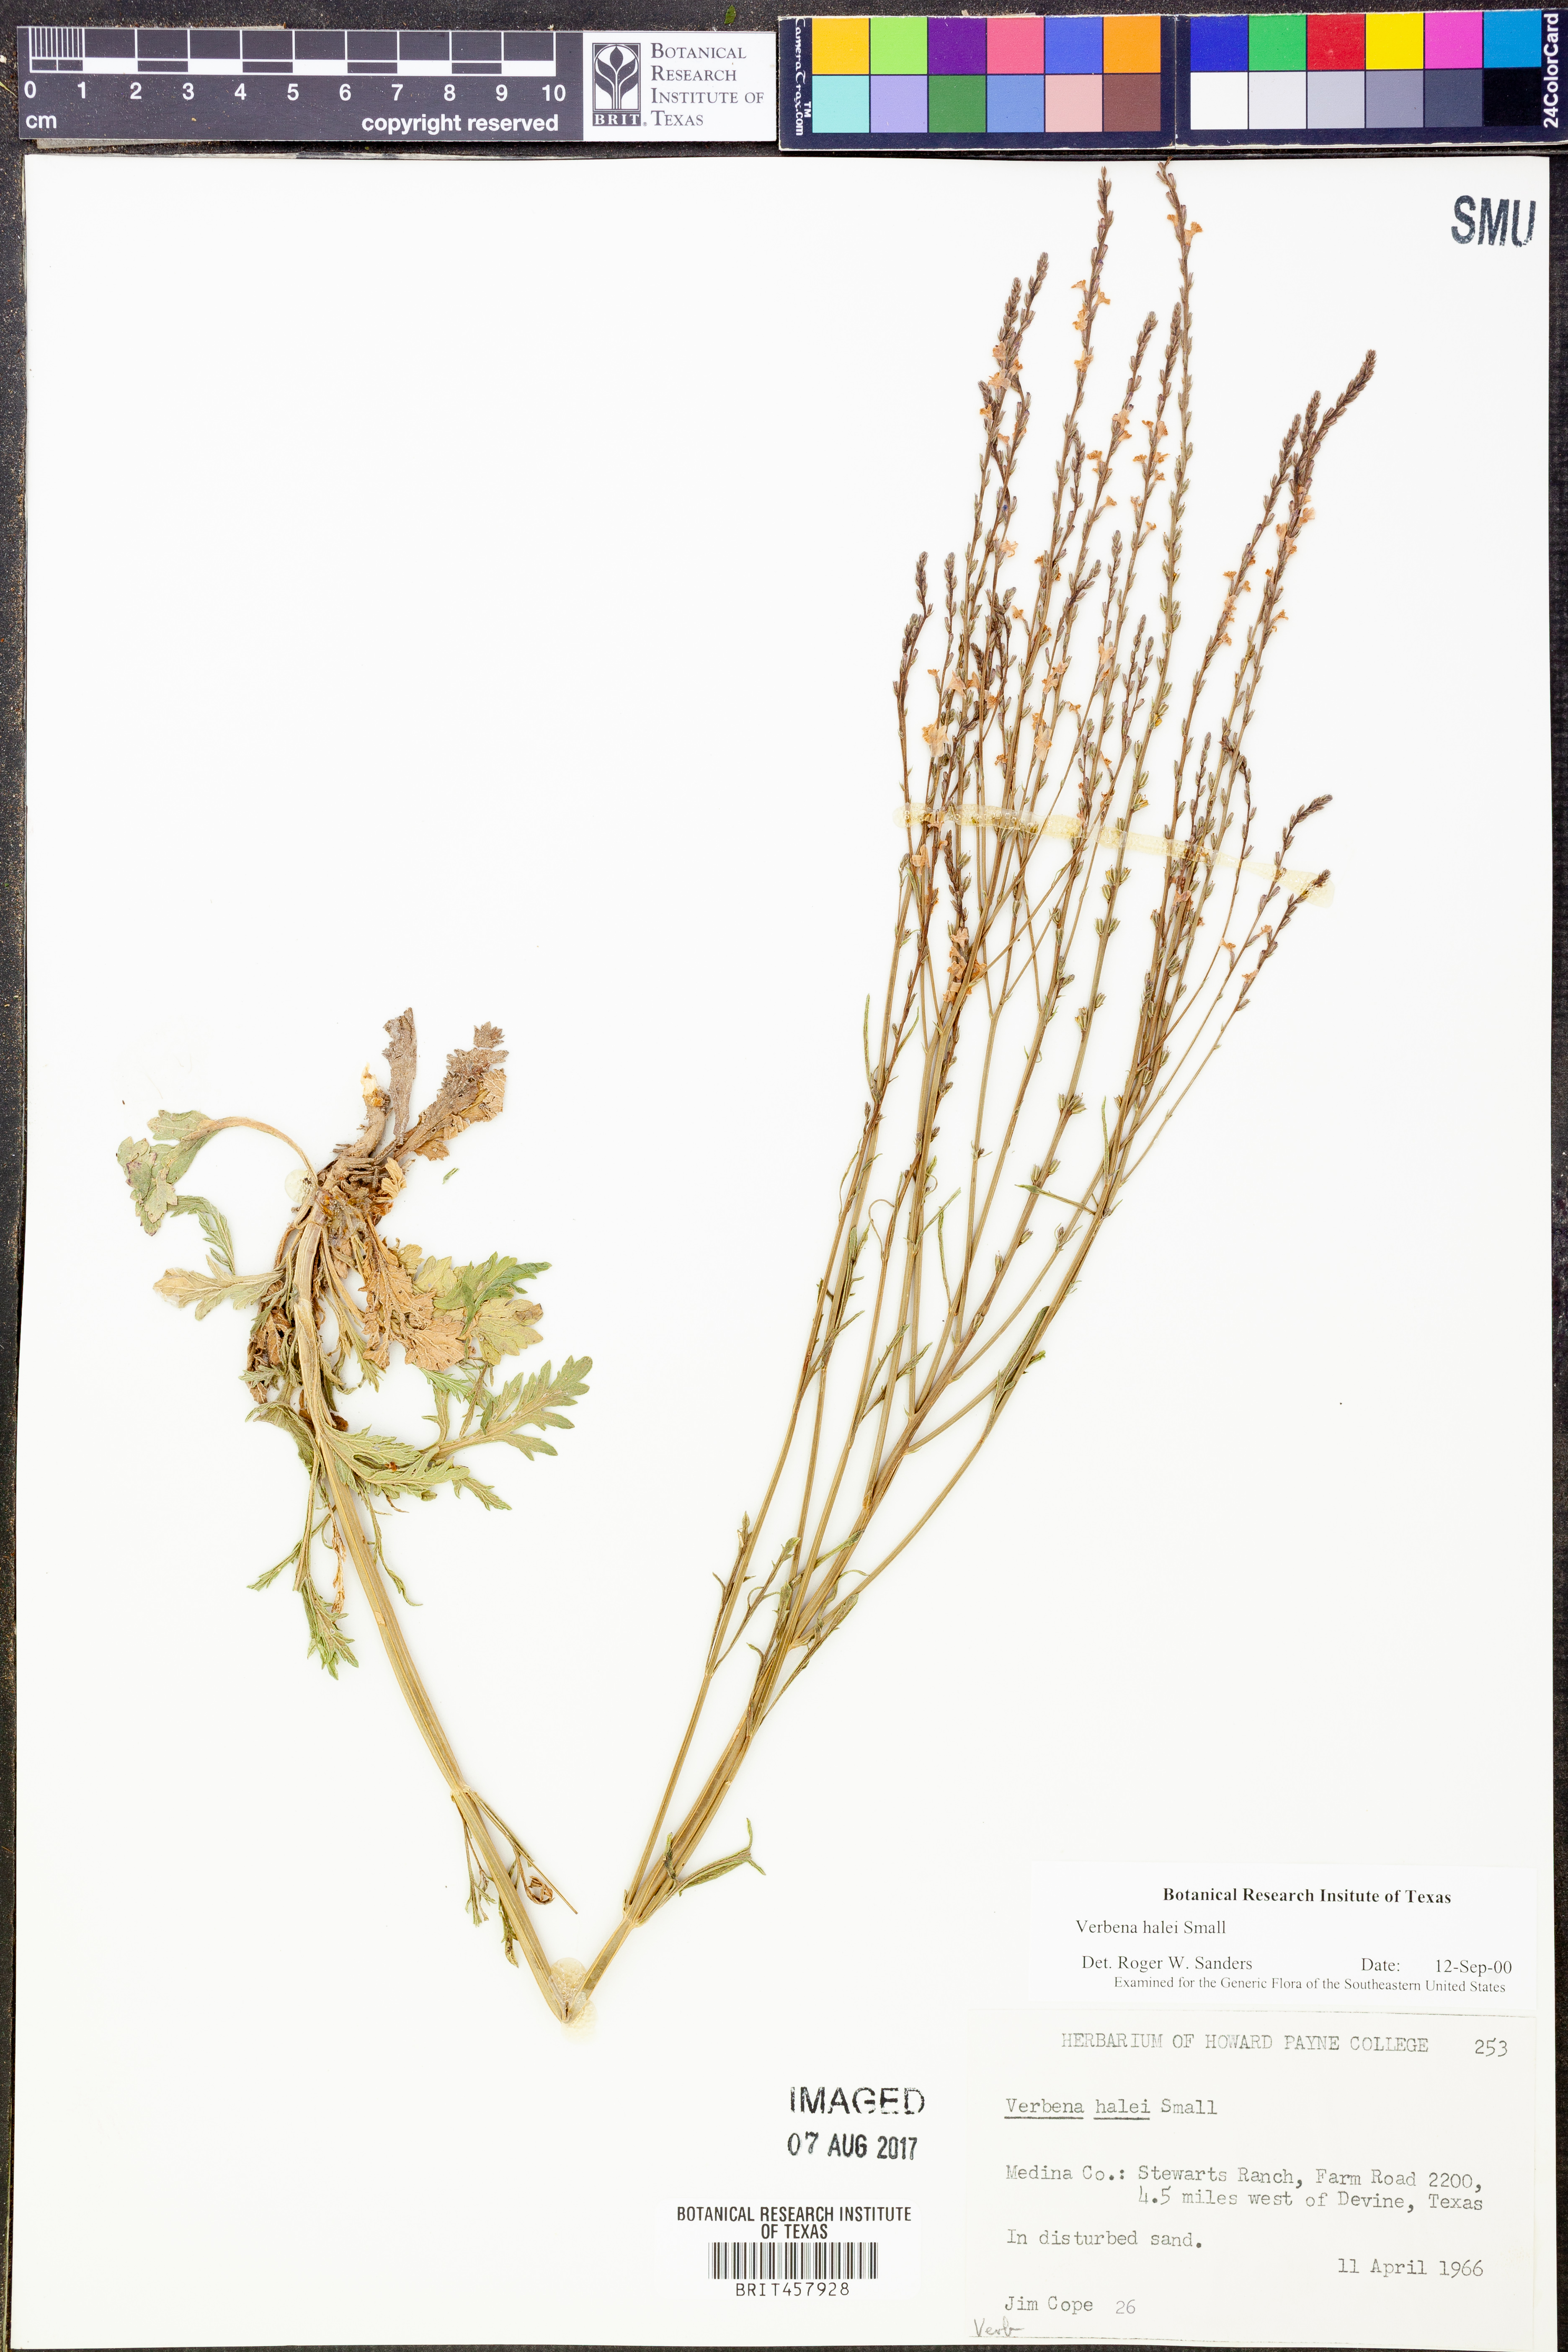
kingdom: Plantae
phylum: Tracheophyta
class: Magnoliopsida
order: Lamiales
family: Verbenaceae
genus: Verbena
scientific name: Verbena halei
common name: Texas vervain
